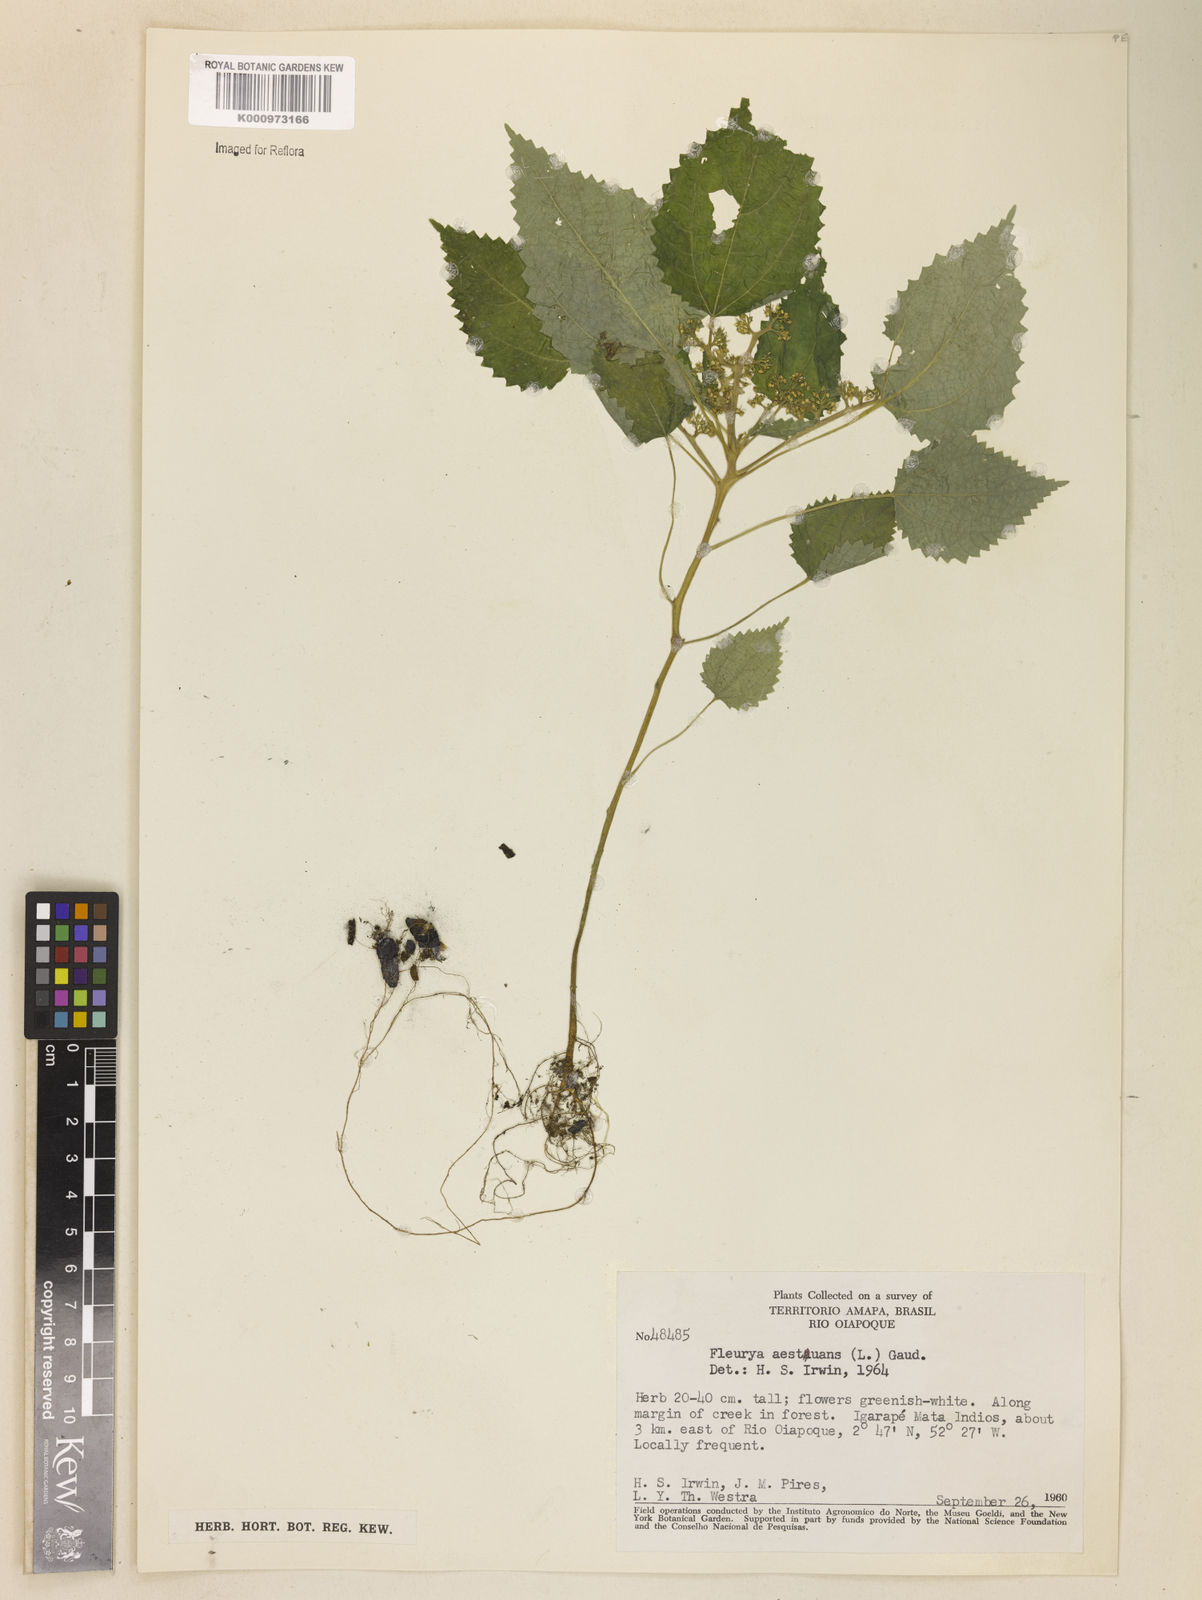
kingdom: Plantae
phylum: Tracheophyta
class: Magnoliopsida
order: Rosales
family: Urticaceae
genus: Laportea
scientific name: Laportea aestuans
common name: West indian woodnettle
